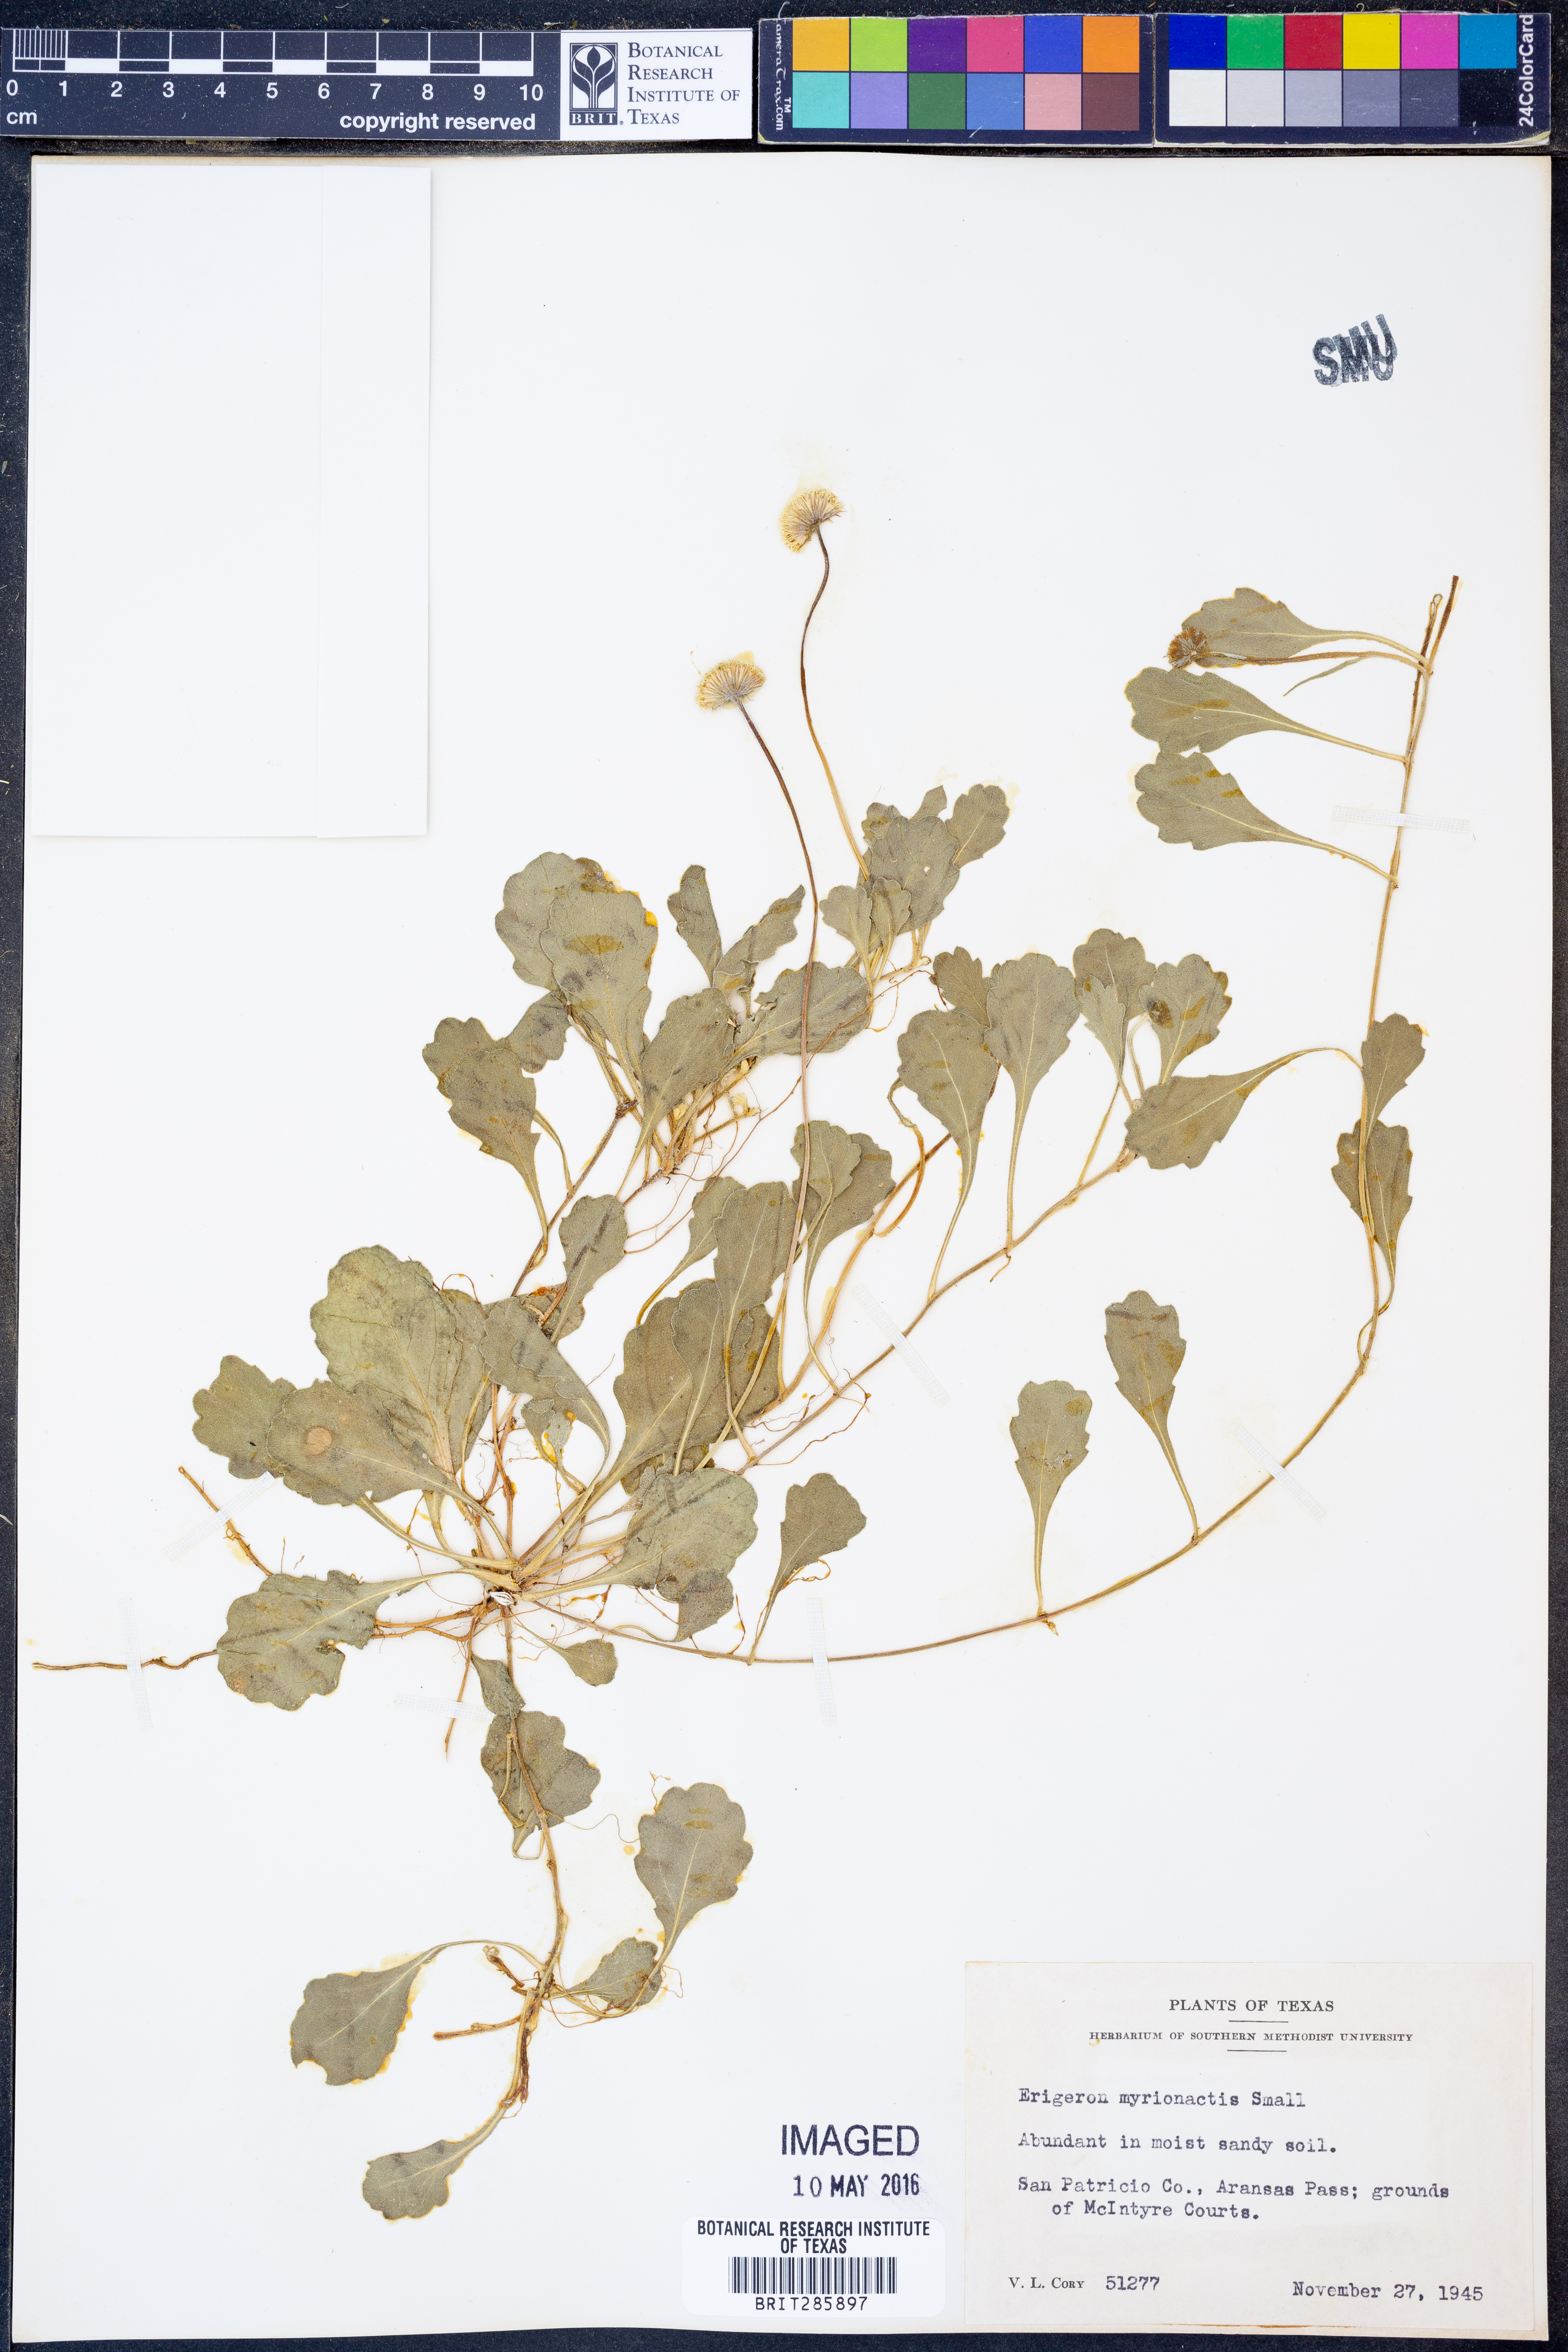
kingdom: Plantae
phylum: Tracheophyta
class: Magnoliopsida
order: Asterales
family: Asteraceae
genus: Erigeron
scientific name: Erigeron procumbens
